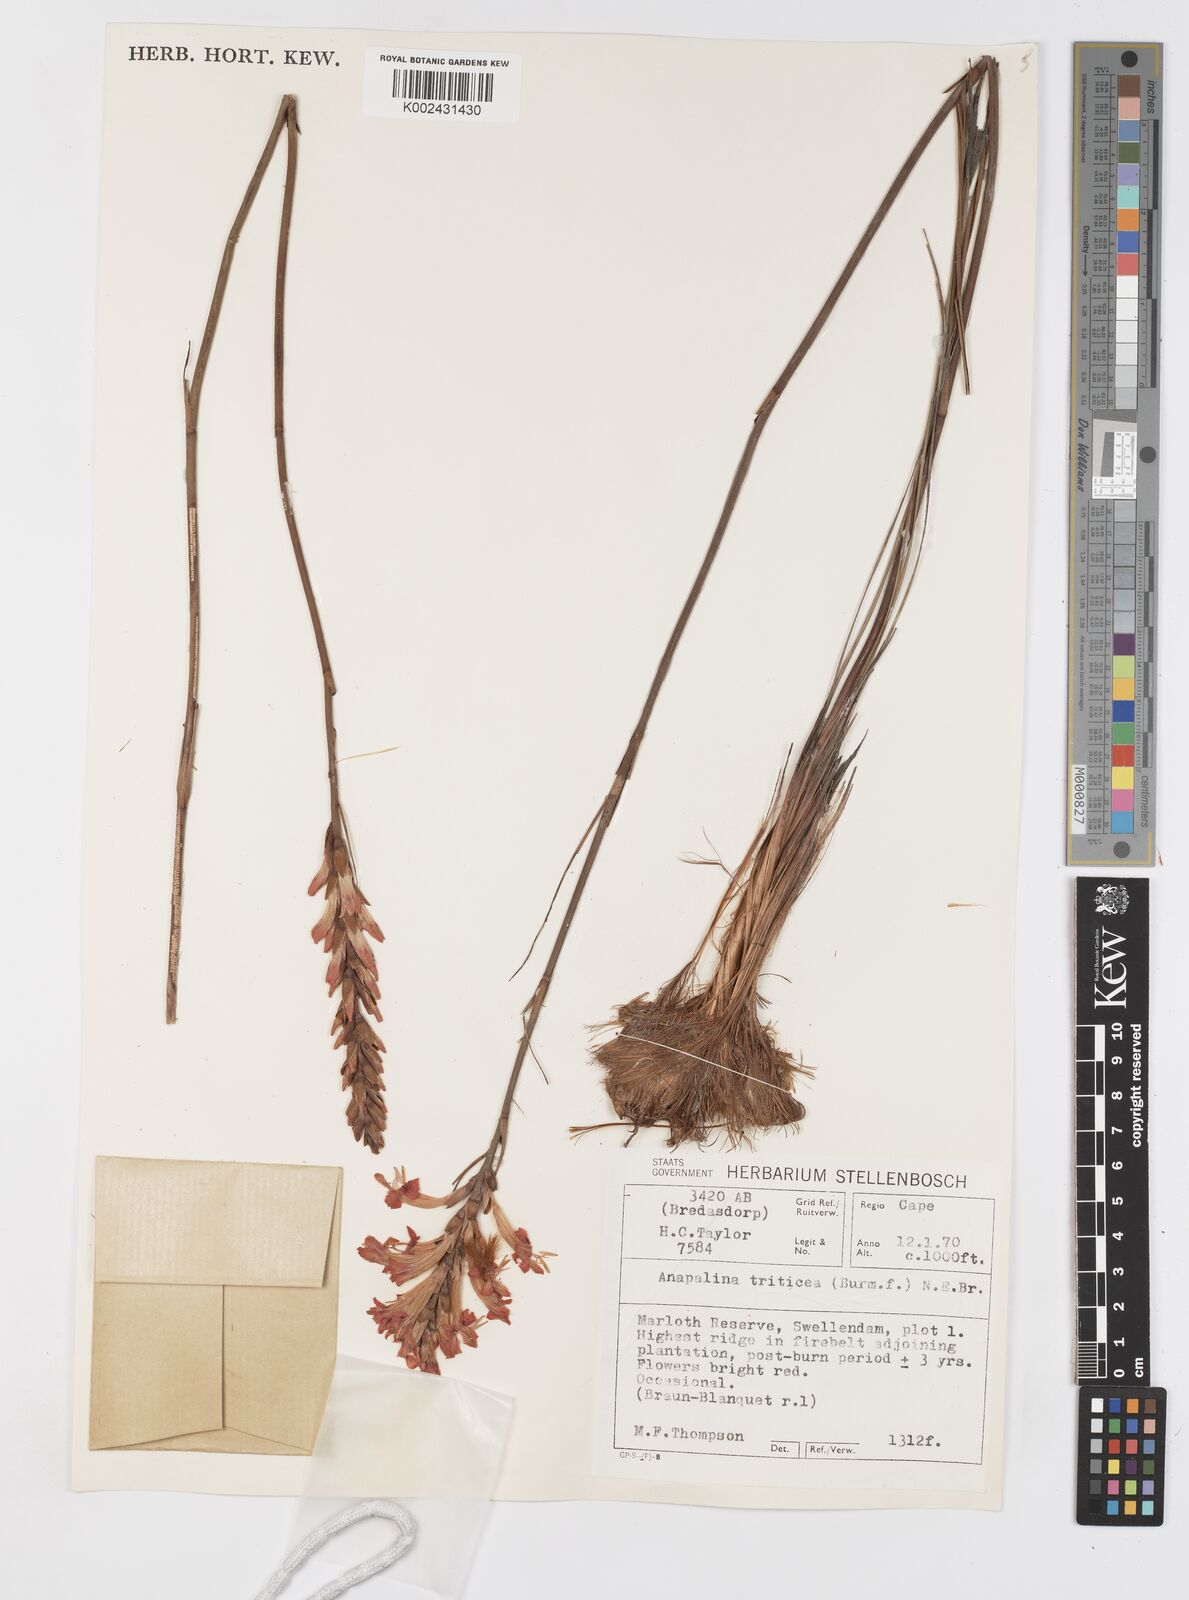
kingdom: Plantae
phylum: Tracheophyta
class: Liliopsida
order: Asparagales
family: Iridaceae
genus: Tritoniopsis
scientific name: Tritoniopsis triticea
